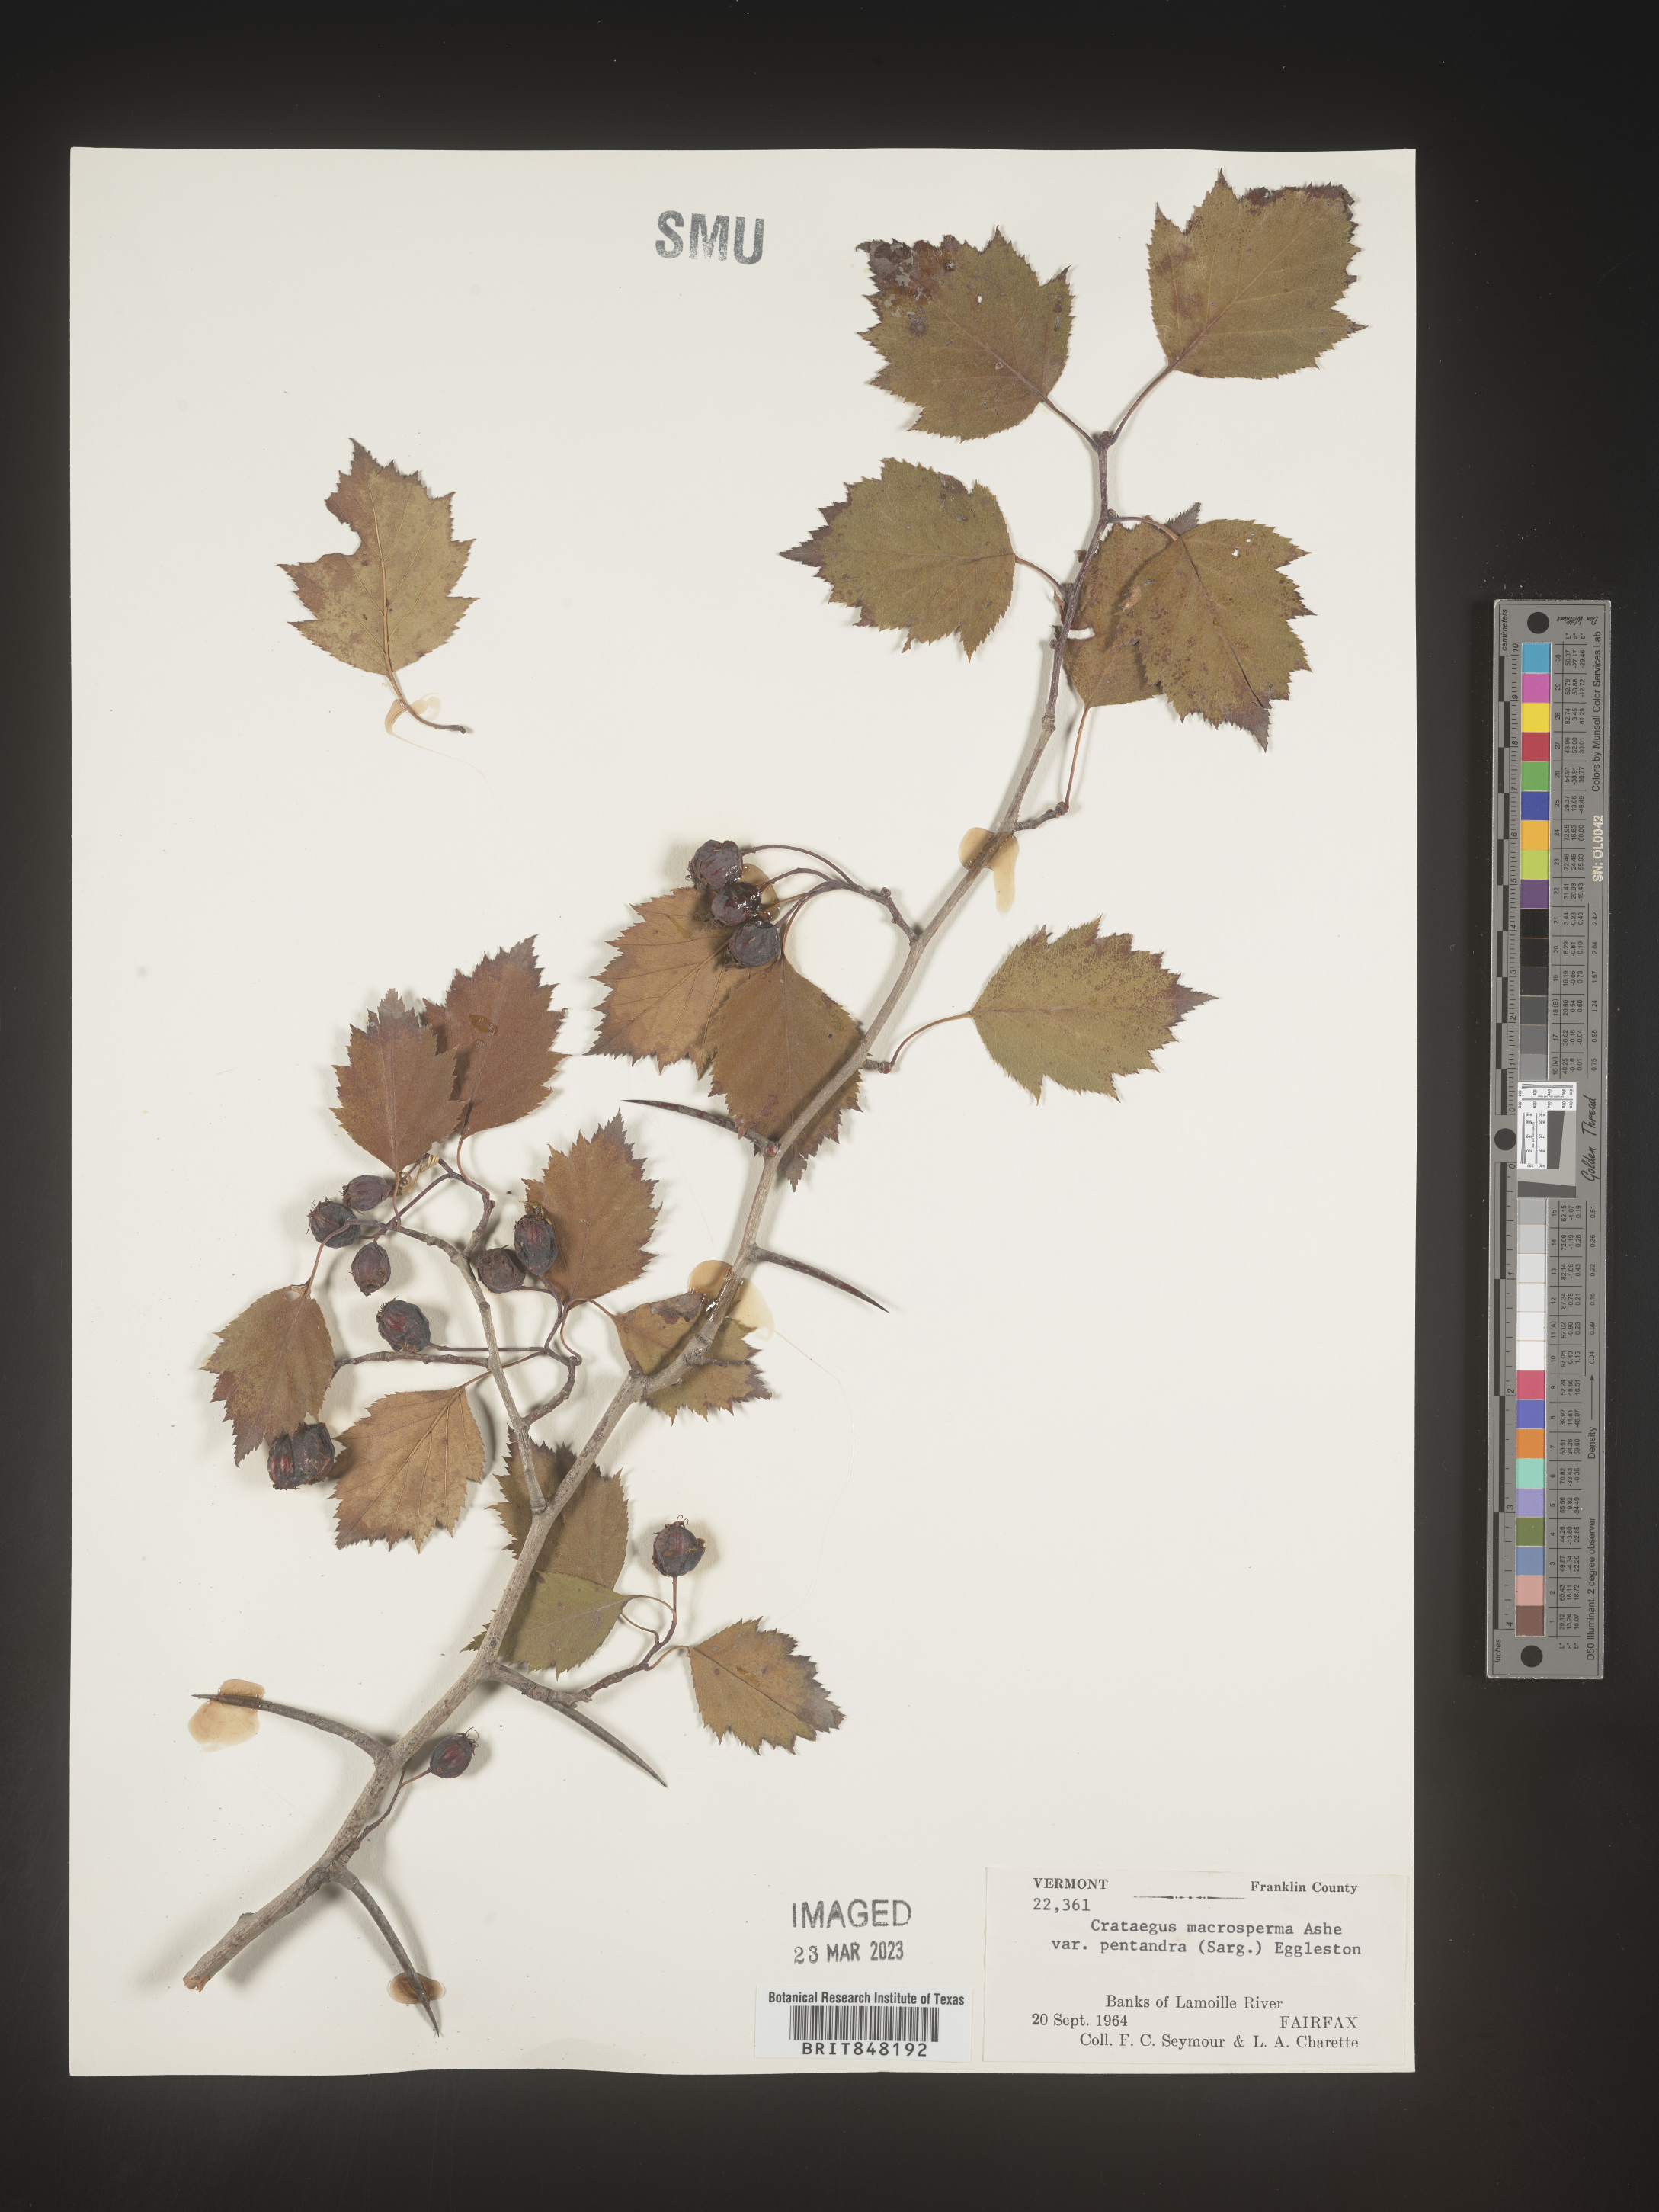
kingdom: Plantae
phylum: Tracheophyta
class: Magnoliopsida
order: Rosales
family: Rosaceae
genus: Crataegus
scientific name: Crataegus macrosperma
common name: Variable hawthorn
